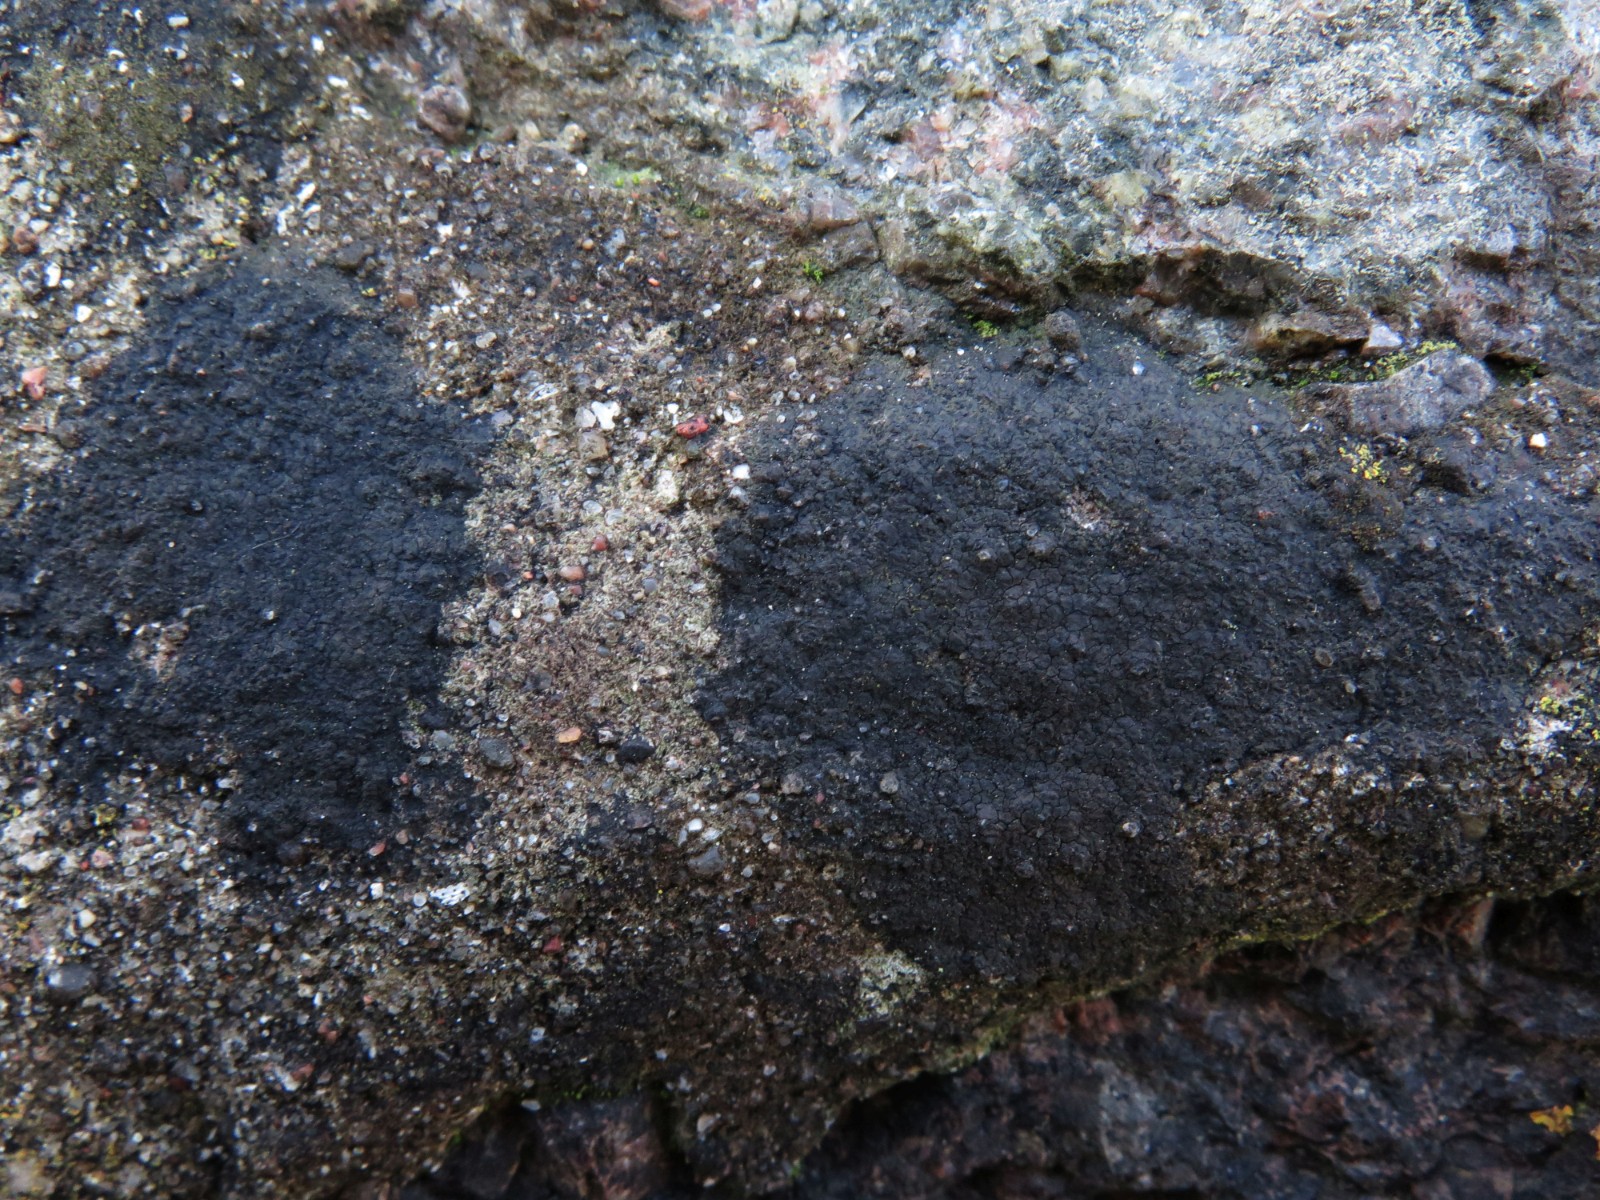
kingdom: Fungi
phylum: Ascomycota
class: Eurotiomycetes
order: Verrucariales
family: Verrucariaceae
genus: Verrucaria
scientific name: Verrucaria nigrescens
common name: sortbrun vortelav
